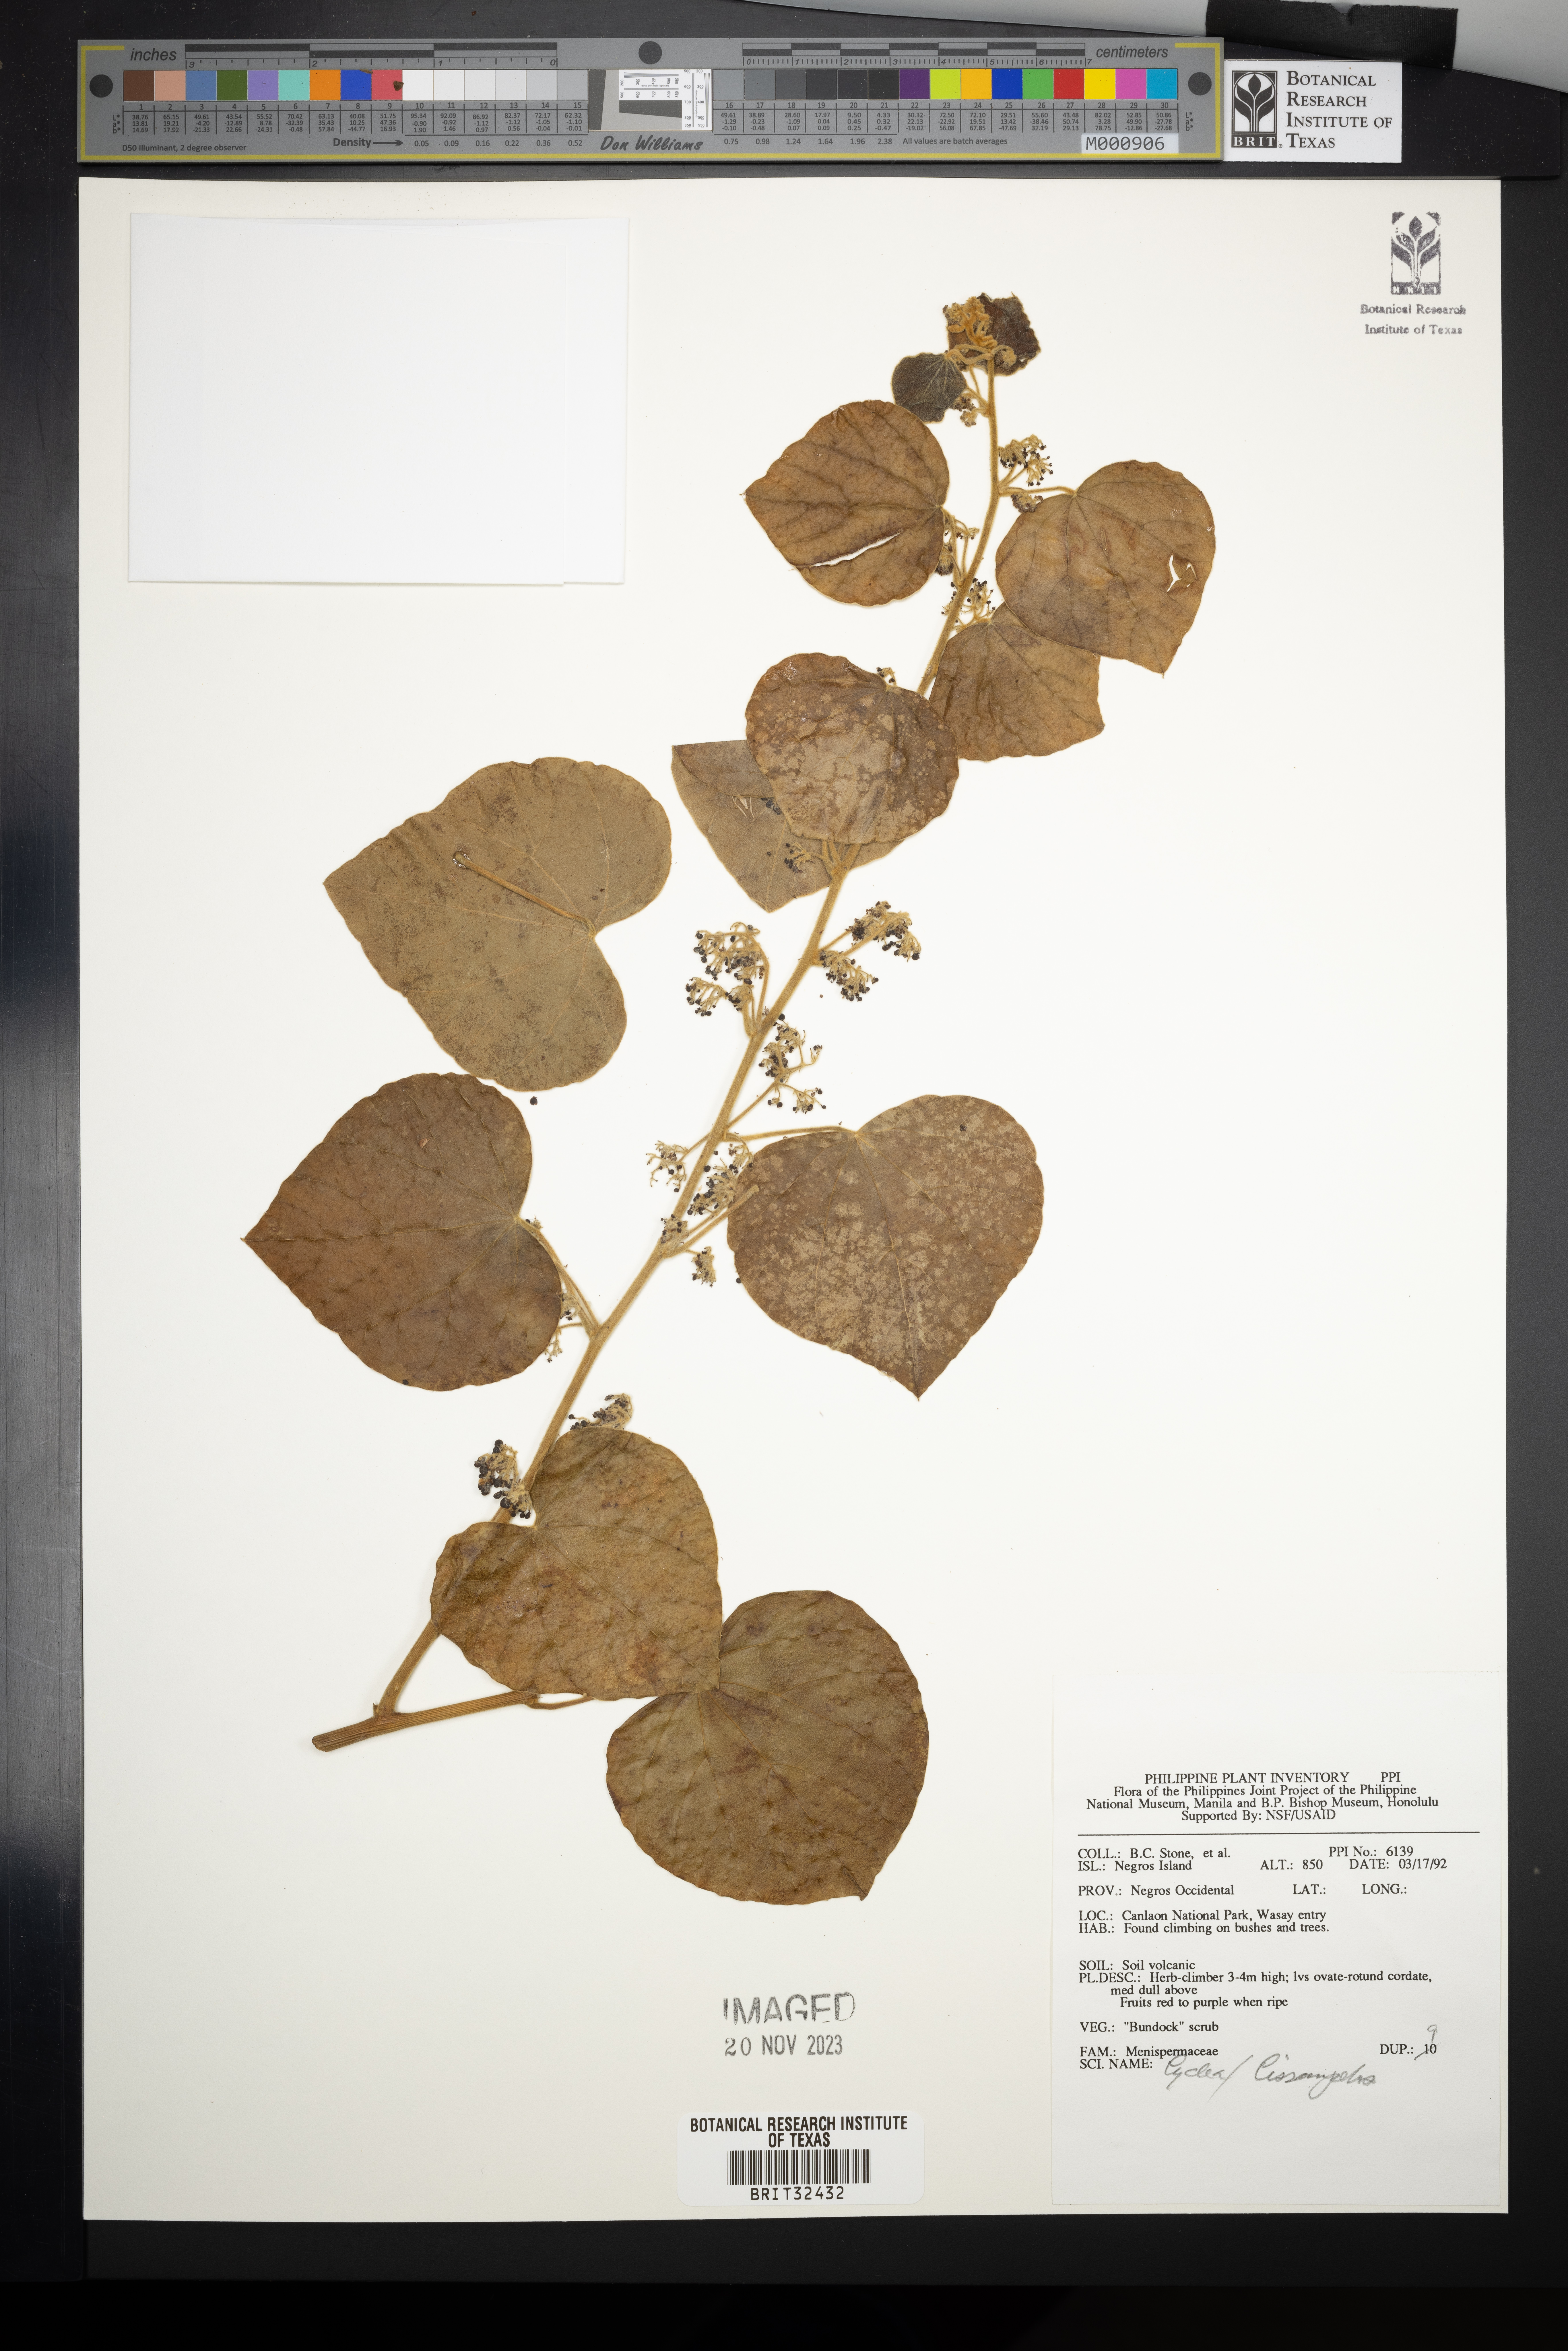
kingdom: Plantae
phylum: Tracheophyta
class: Magnoliopsida
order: Ranunculales
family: Menispermaceae
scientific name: Menispermaceae
